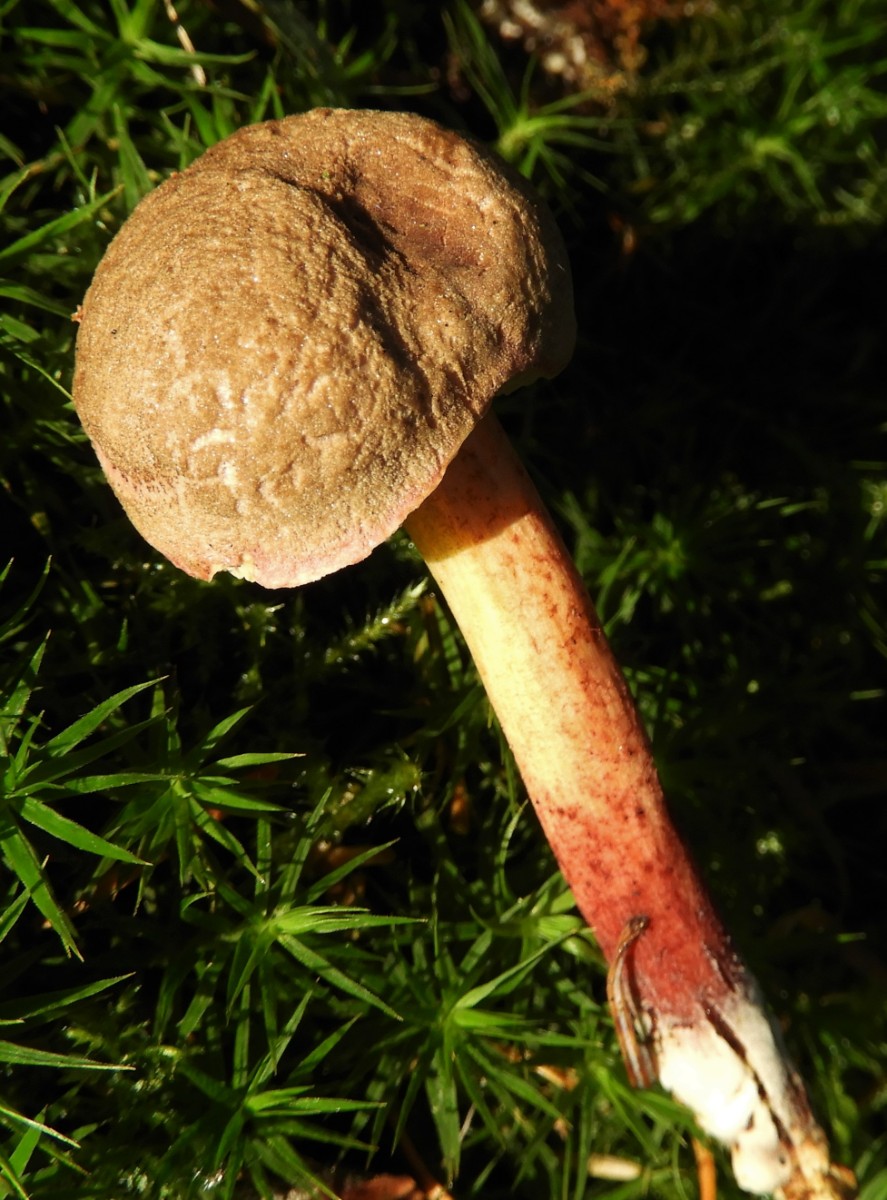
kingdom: Fungi
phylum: Basidiomycota
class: Agaricomycetes
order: Boletales
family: Boletaceae
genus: Xerocomellus
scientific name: Xerocomellus chrysenteron
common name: rødsprukken rørhat
